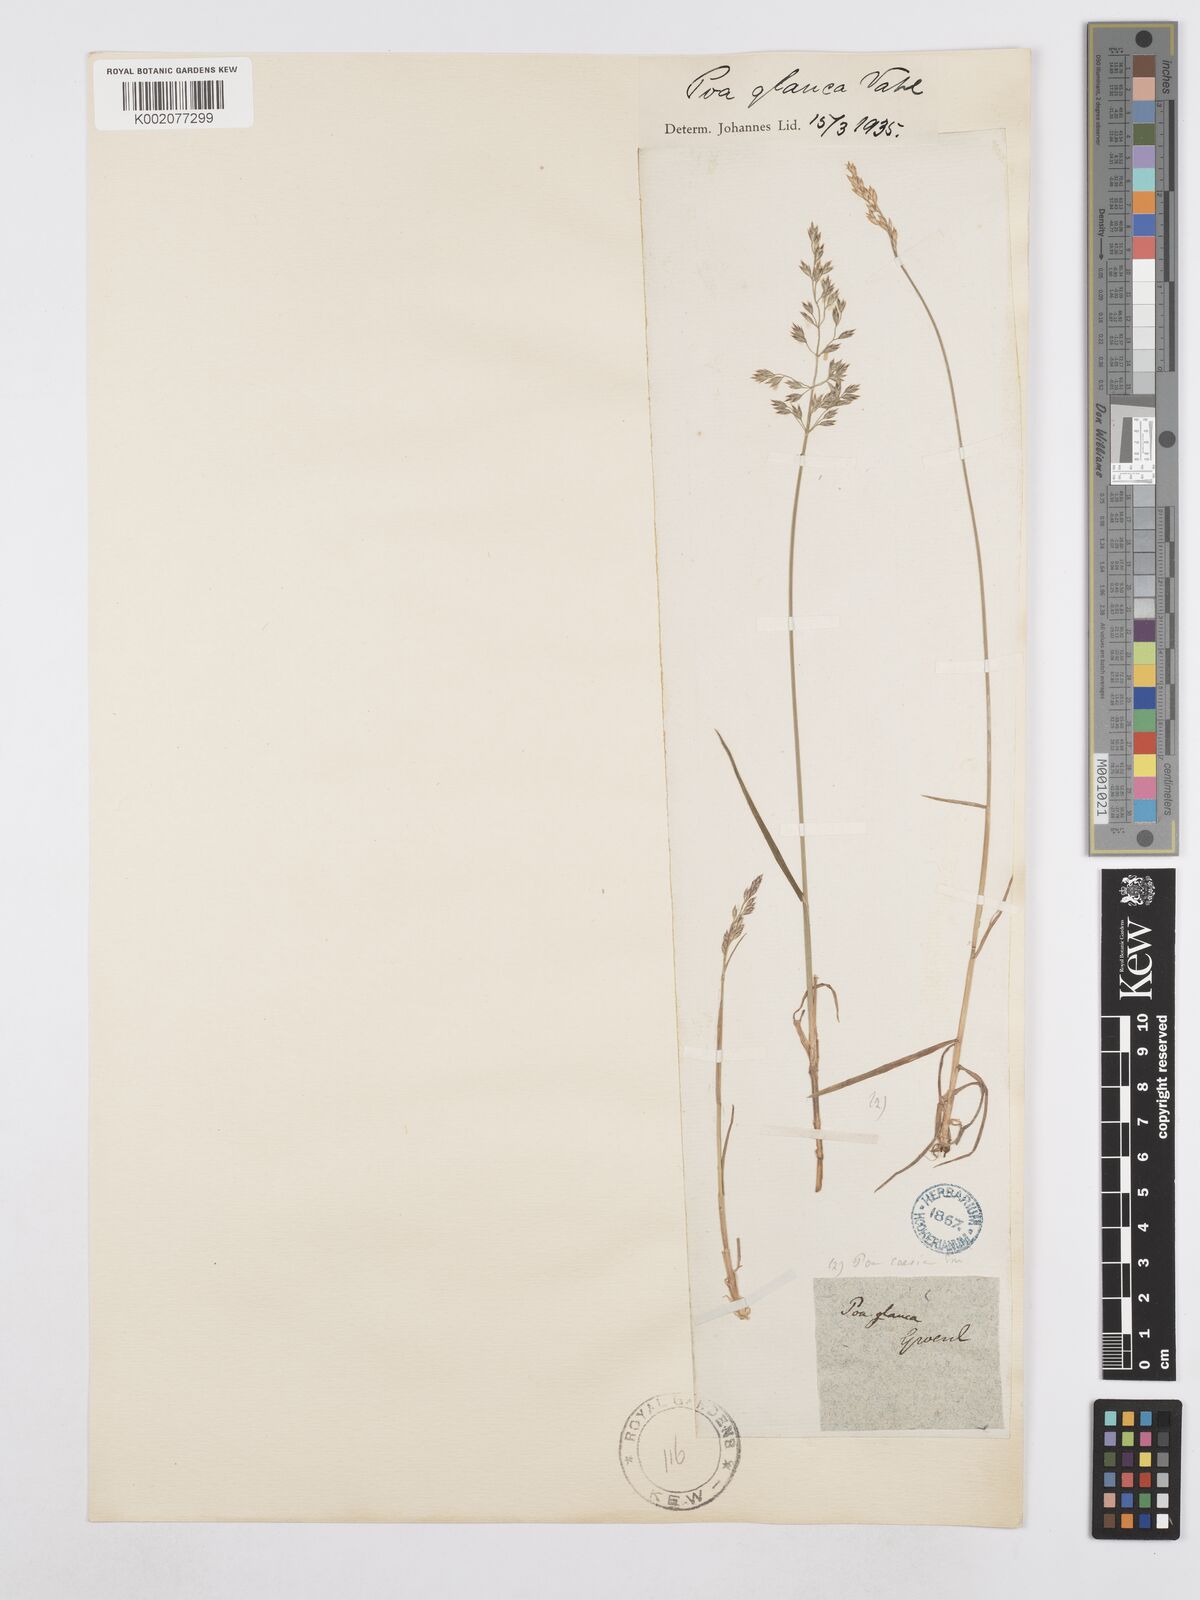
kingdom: Plantae
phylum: Tracheophyta
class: Liliopsida
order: Poales
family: Poaceae
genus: Poa
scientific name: Poa glauca
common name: Glaucous bluegrass
